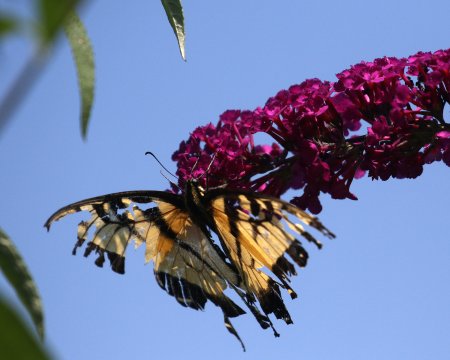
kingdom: Animalia
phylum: Arthropoda
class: Insecta
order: Lepidoptera
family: Papilionidae
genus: Pterourus
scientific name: Pterourus glaucus
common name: Eastern Tiger Swallowtail
